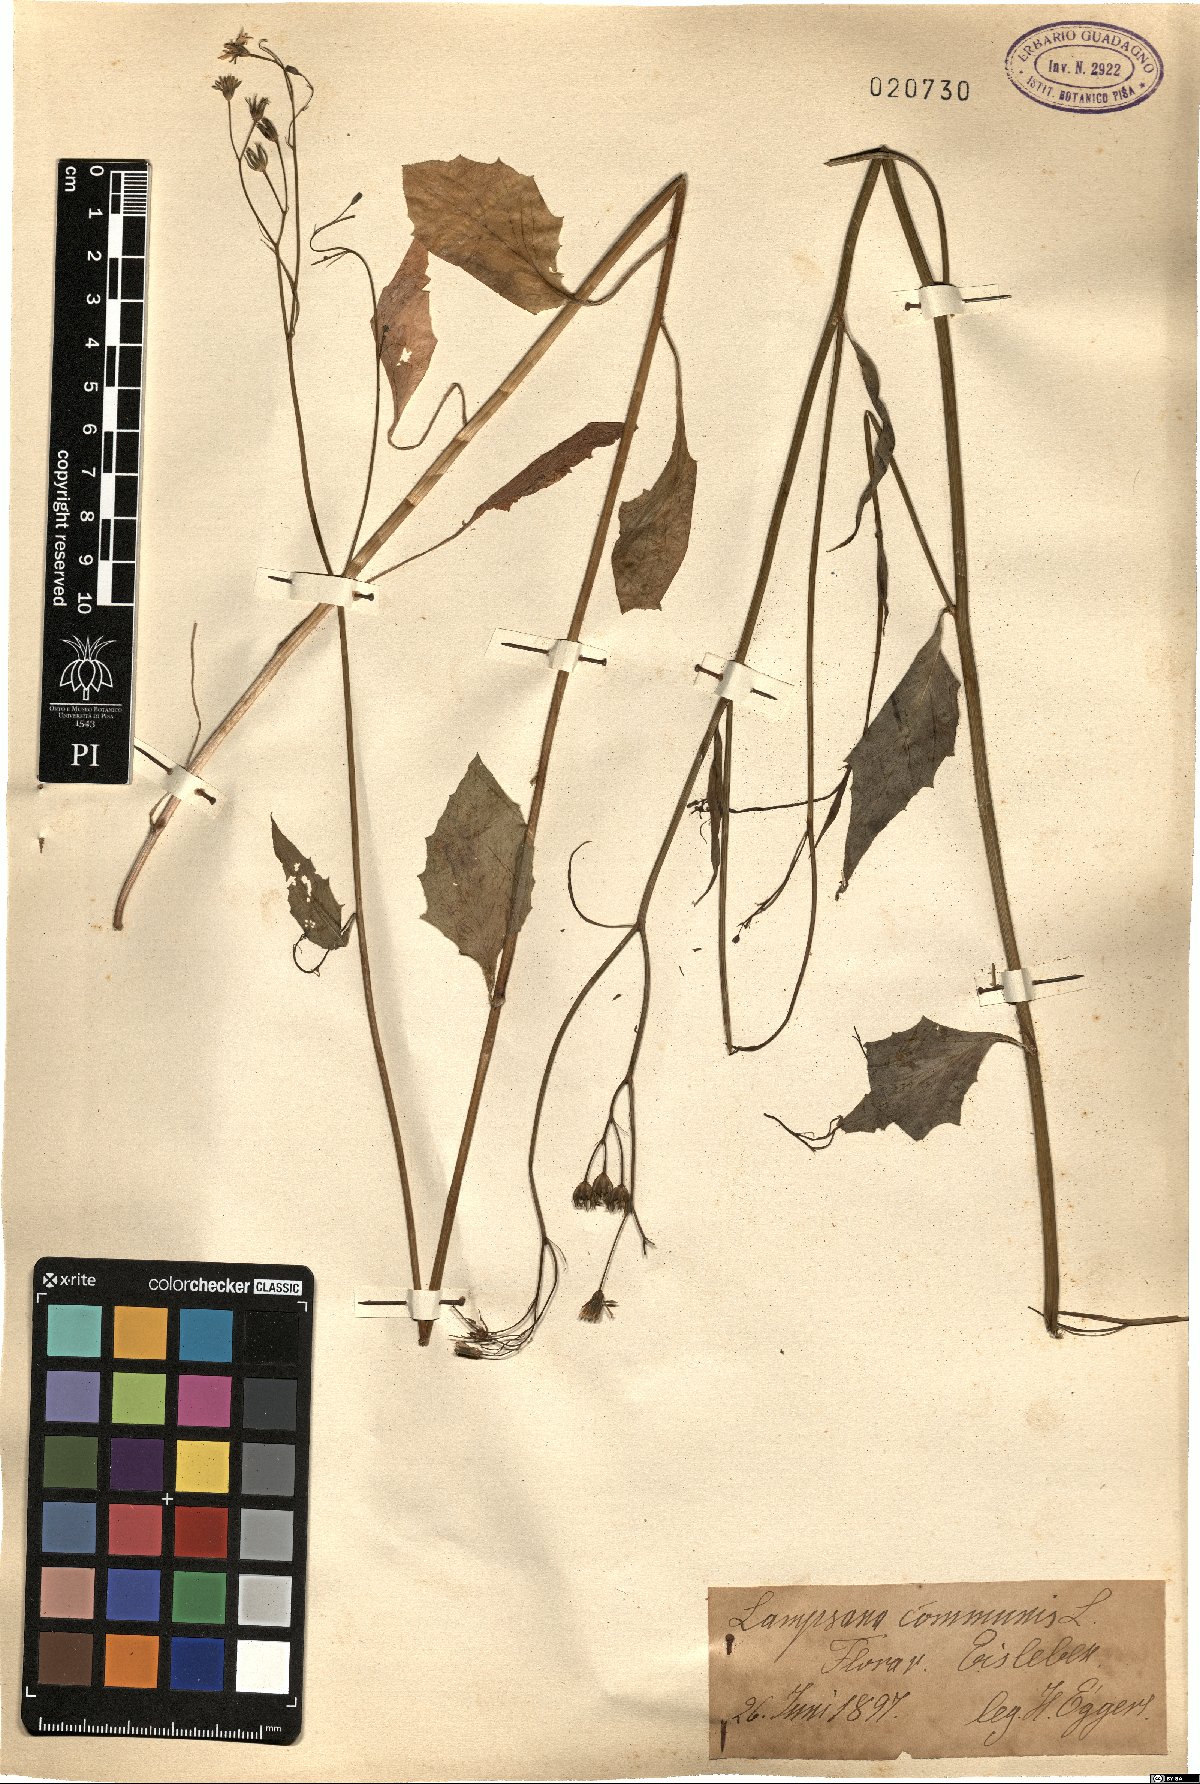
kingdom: Plantae
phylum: Tracheophyta
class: Magnoliopsida
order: Asterales
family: Asteraceae
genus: Lapsana
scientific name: Lapsana communis
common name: Nipplewort
